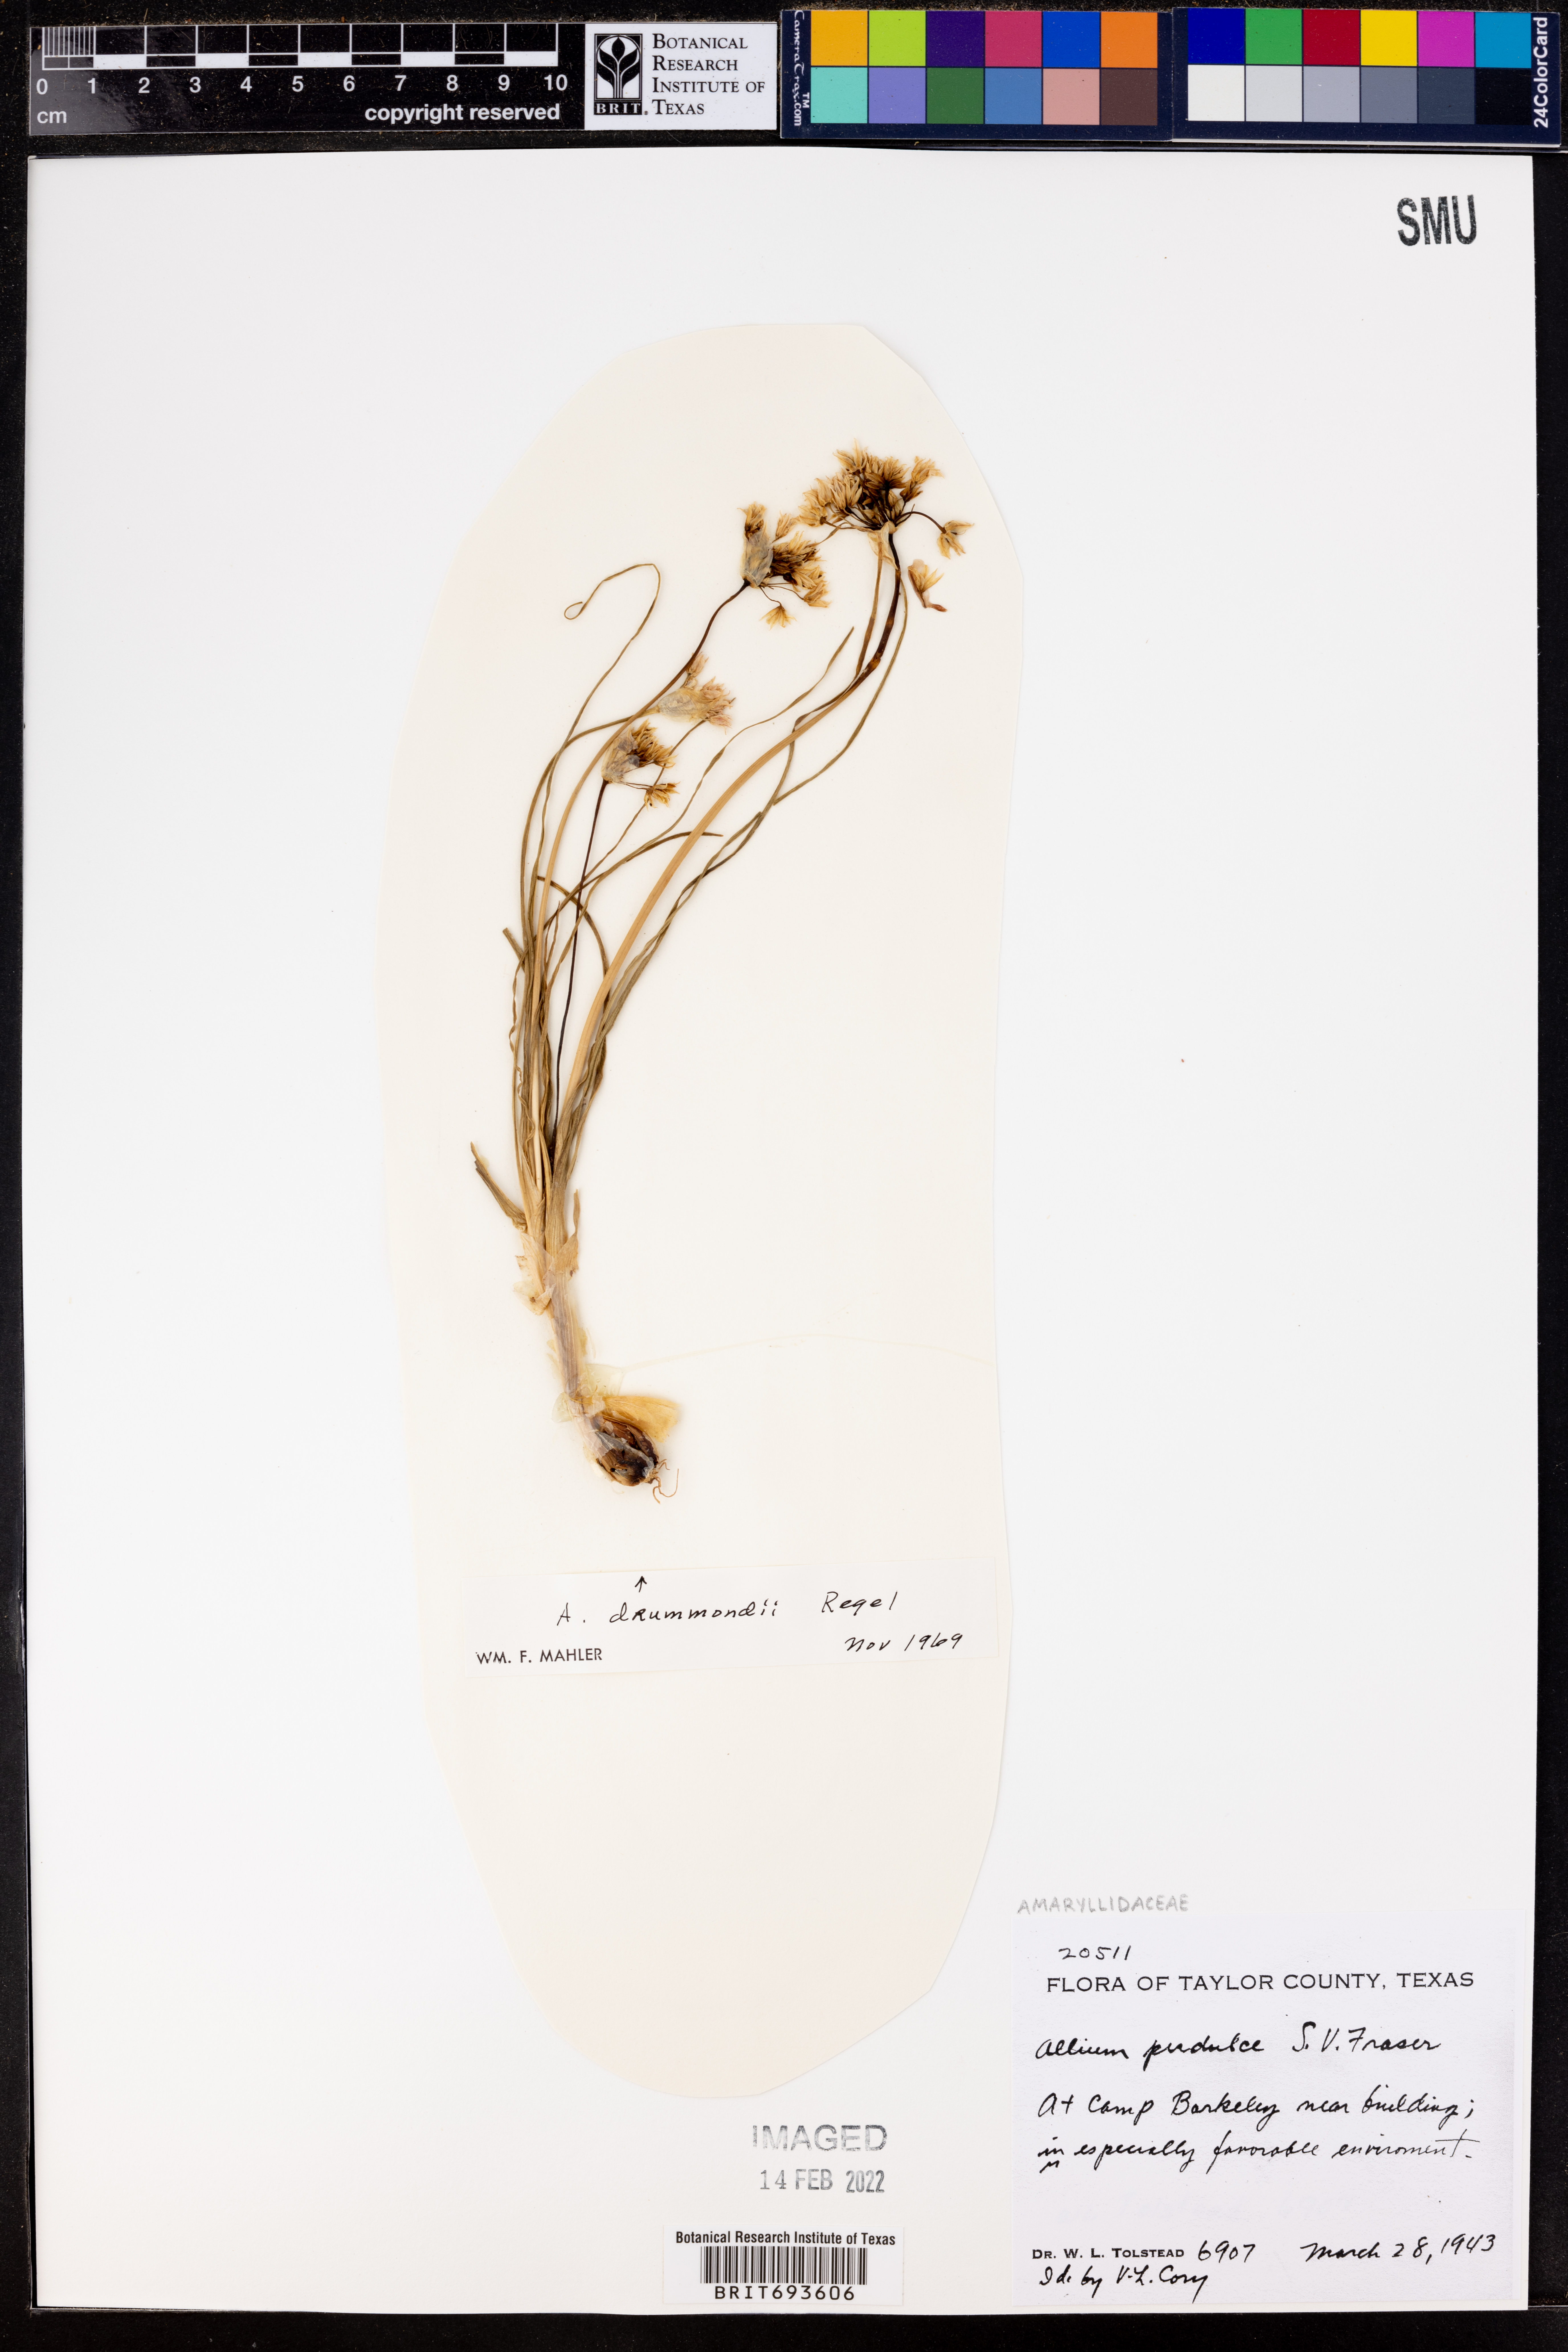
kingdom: Plantae
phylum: Tracheophyta
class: Liliopsida
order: Asparagales
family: Amaryllidaceae
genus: Allium
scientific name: Allium drummondii
